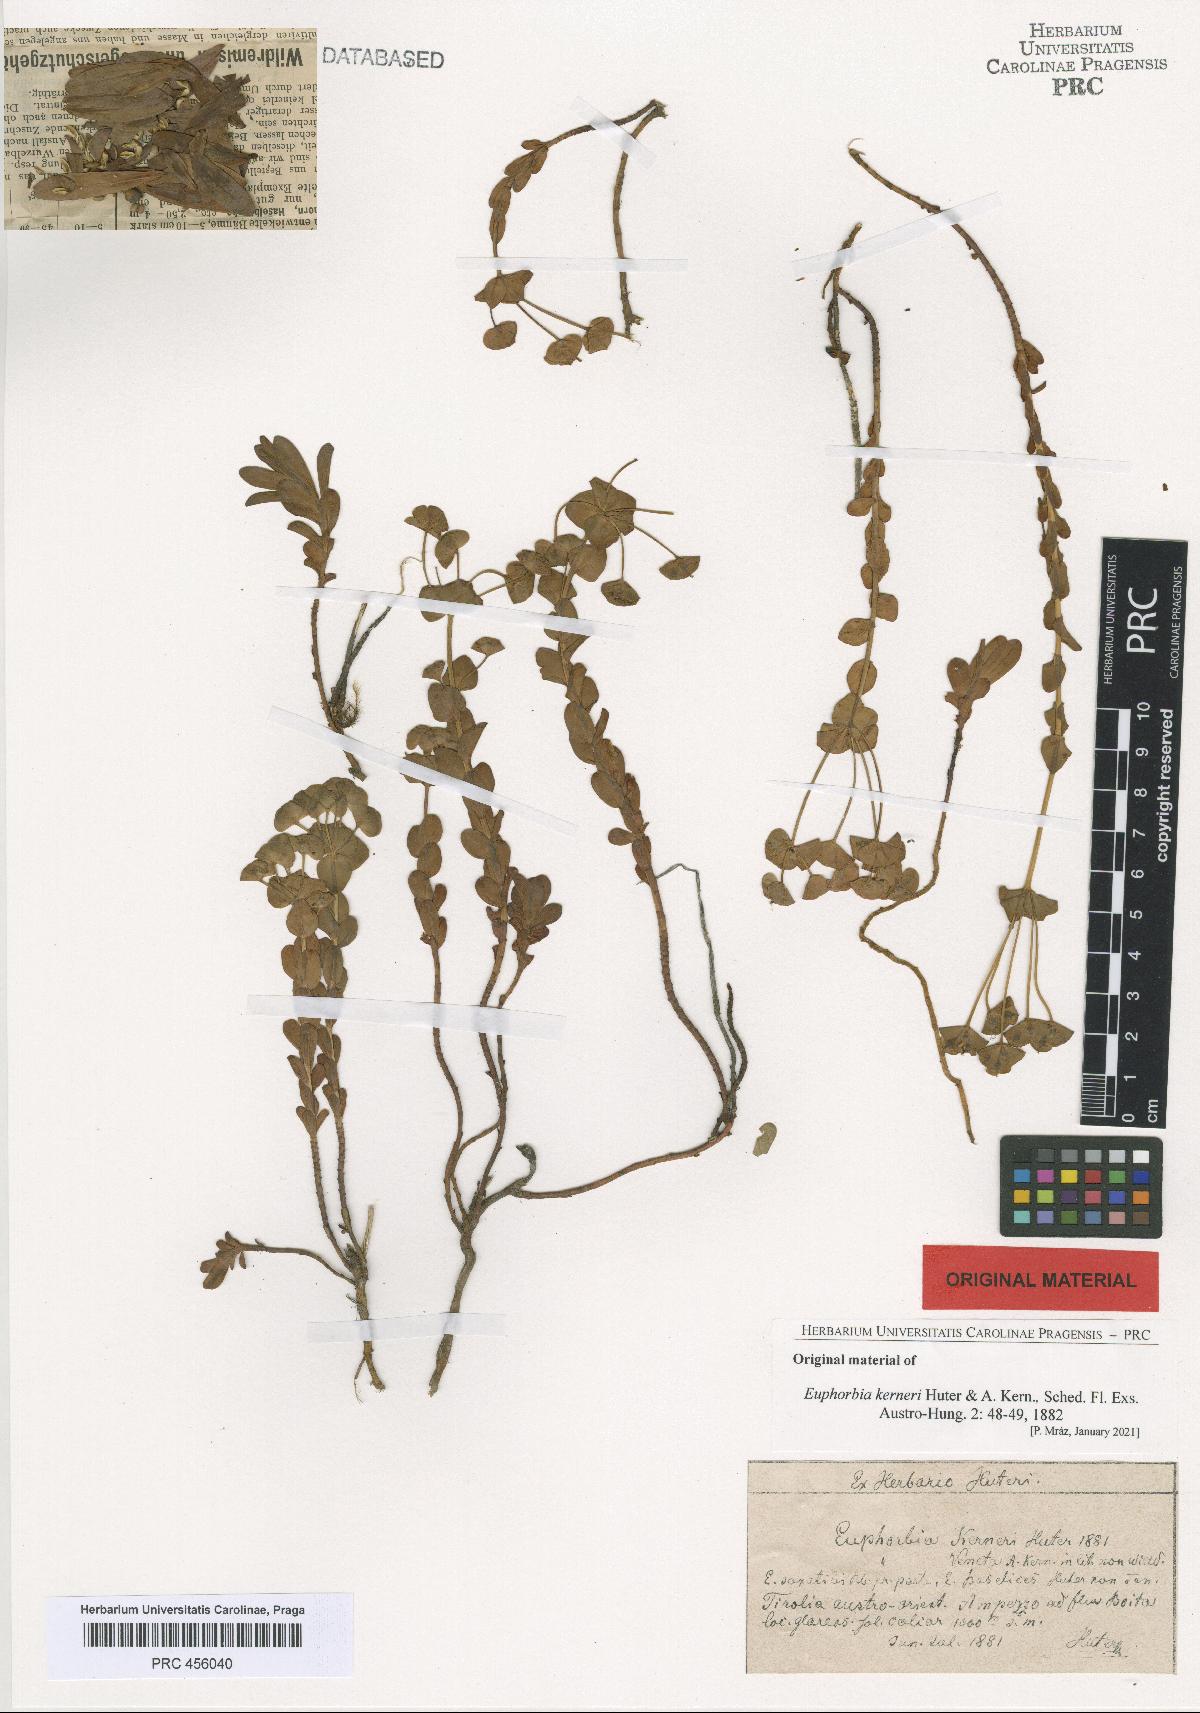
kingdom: Plantae
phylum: Tracheophyta
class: Magnoliopsida
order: Malpighiales
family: Euphorbiaceae
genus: Euphorbia
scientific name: Euphorbia kerneri
